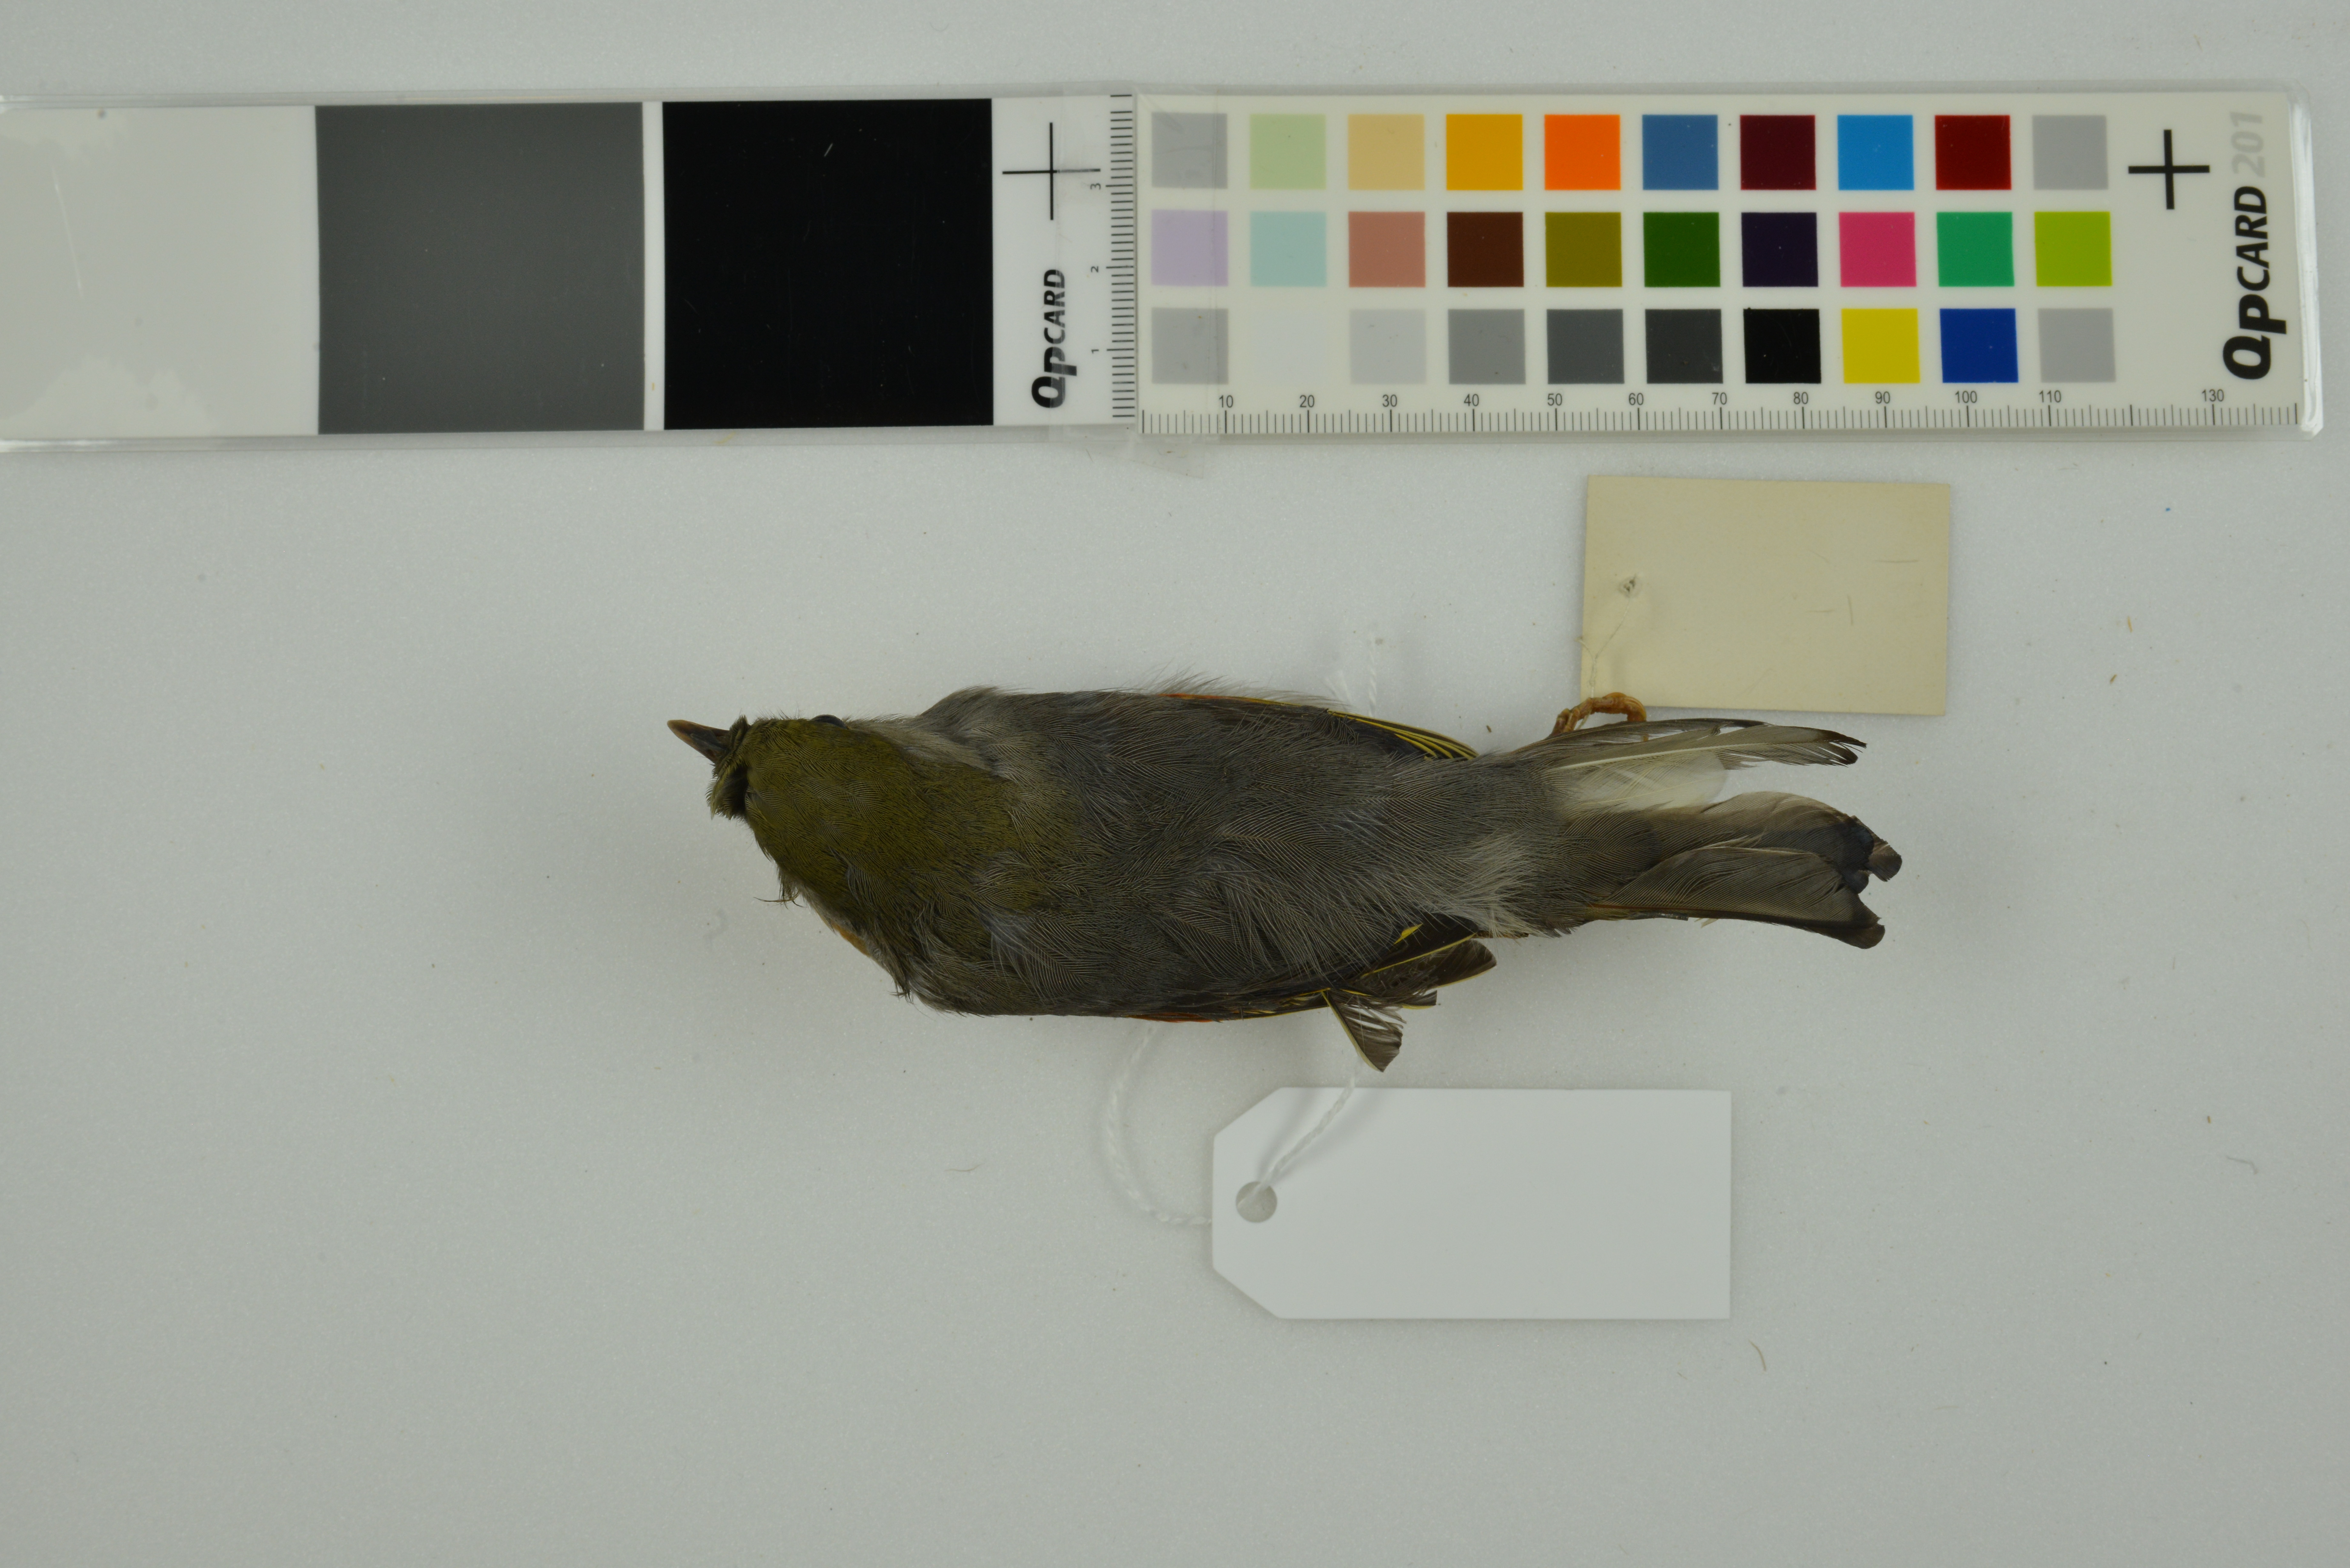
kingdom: Animalia
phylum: Chordata
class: Aves
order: Passeriformes
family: Leiothrichidae
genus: Leiothrix
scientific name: Leiothrix lutea
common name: Red-billed leiothrix
